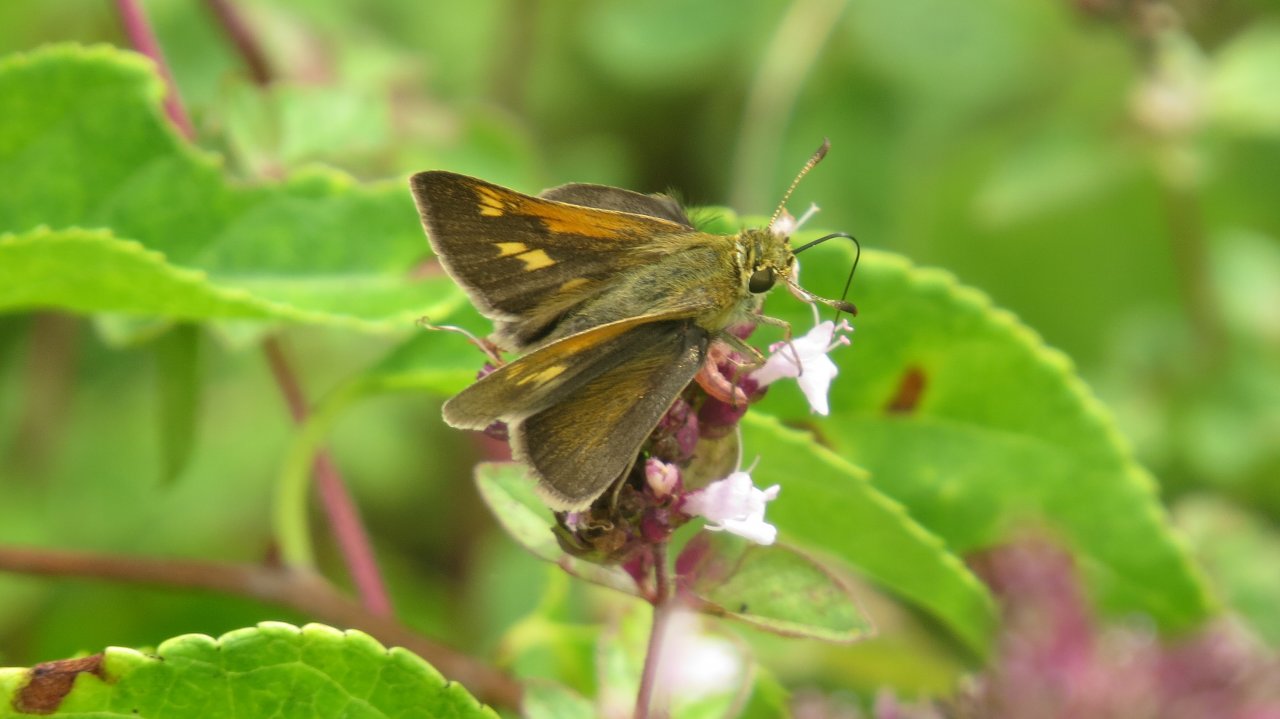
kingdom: Animalia
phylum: Arthropoda
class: Insecta
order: Lepidoptera
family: Hesperiidae
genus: Polites
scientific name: Polites themistocles
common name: Tawny-edged Skipper
